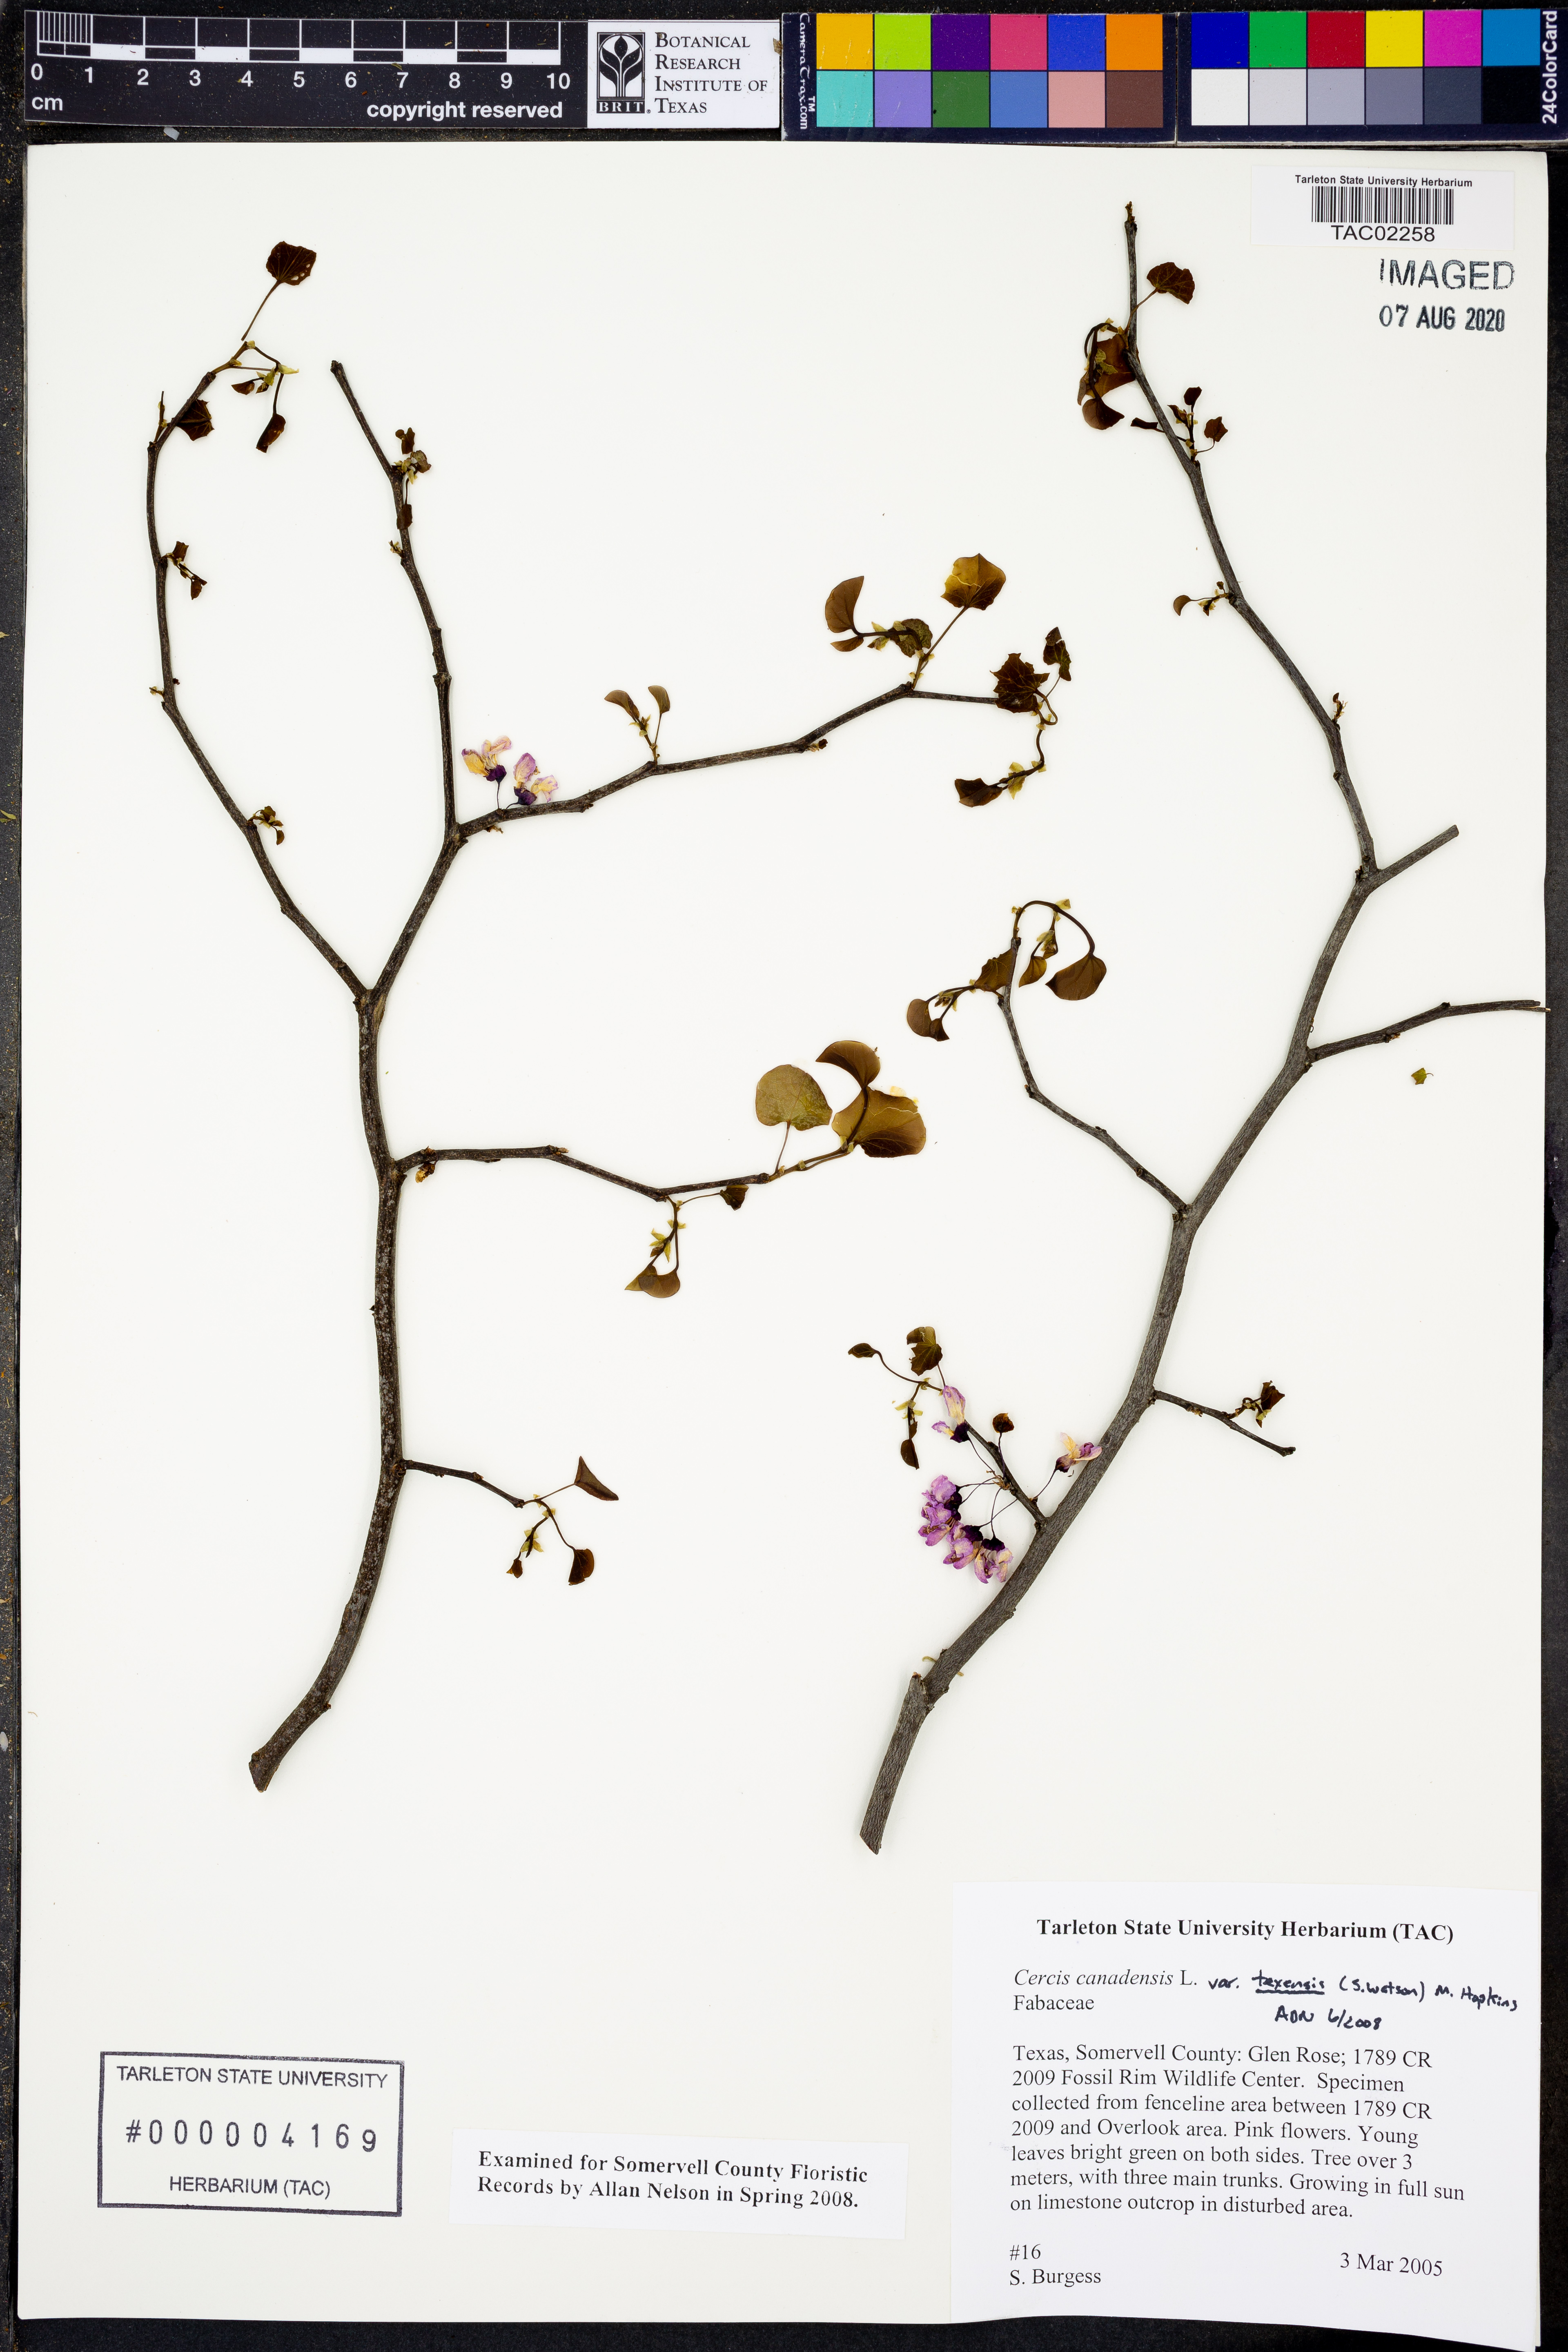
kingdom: Plantae
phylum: Tracheophyta
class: Magnoliopsida
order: Fabales
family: Fabaceae
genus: Cercis
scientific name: Cercis canadensis
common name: Eastern redbud
